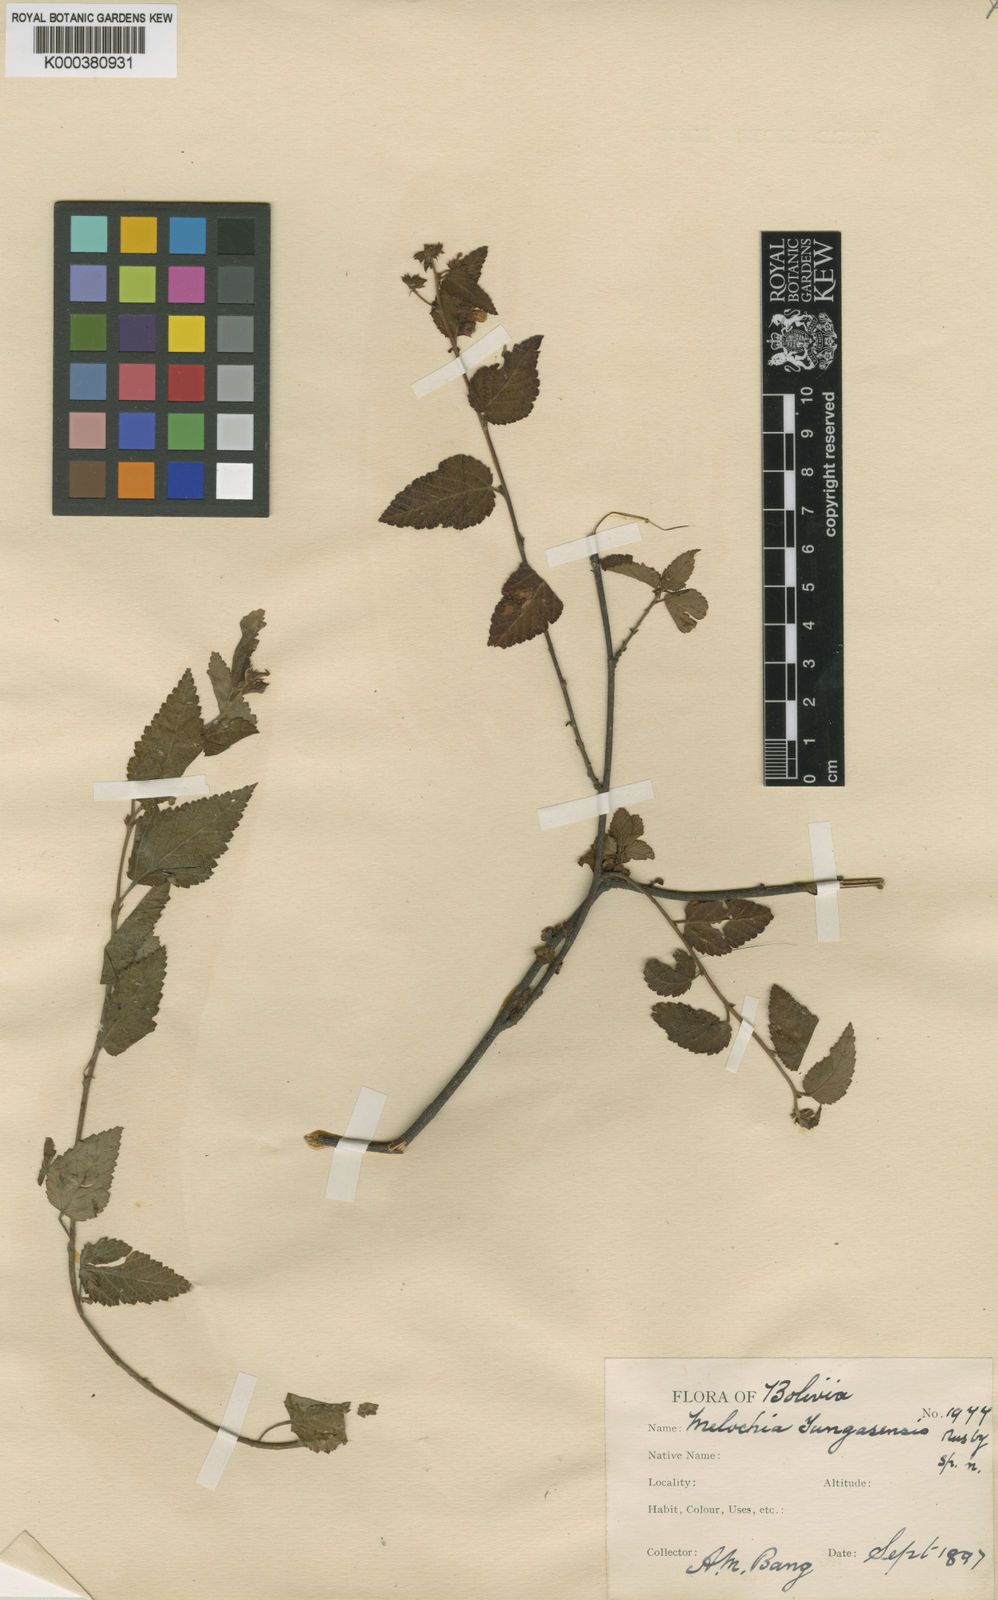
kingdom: Plantae
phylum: Tracheophyta
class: Magnoliopsida
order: Malvales
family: Malvaceae
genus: Melochia
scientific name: Melochia thymifolia
